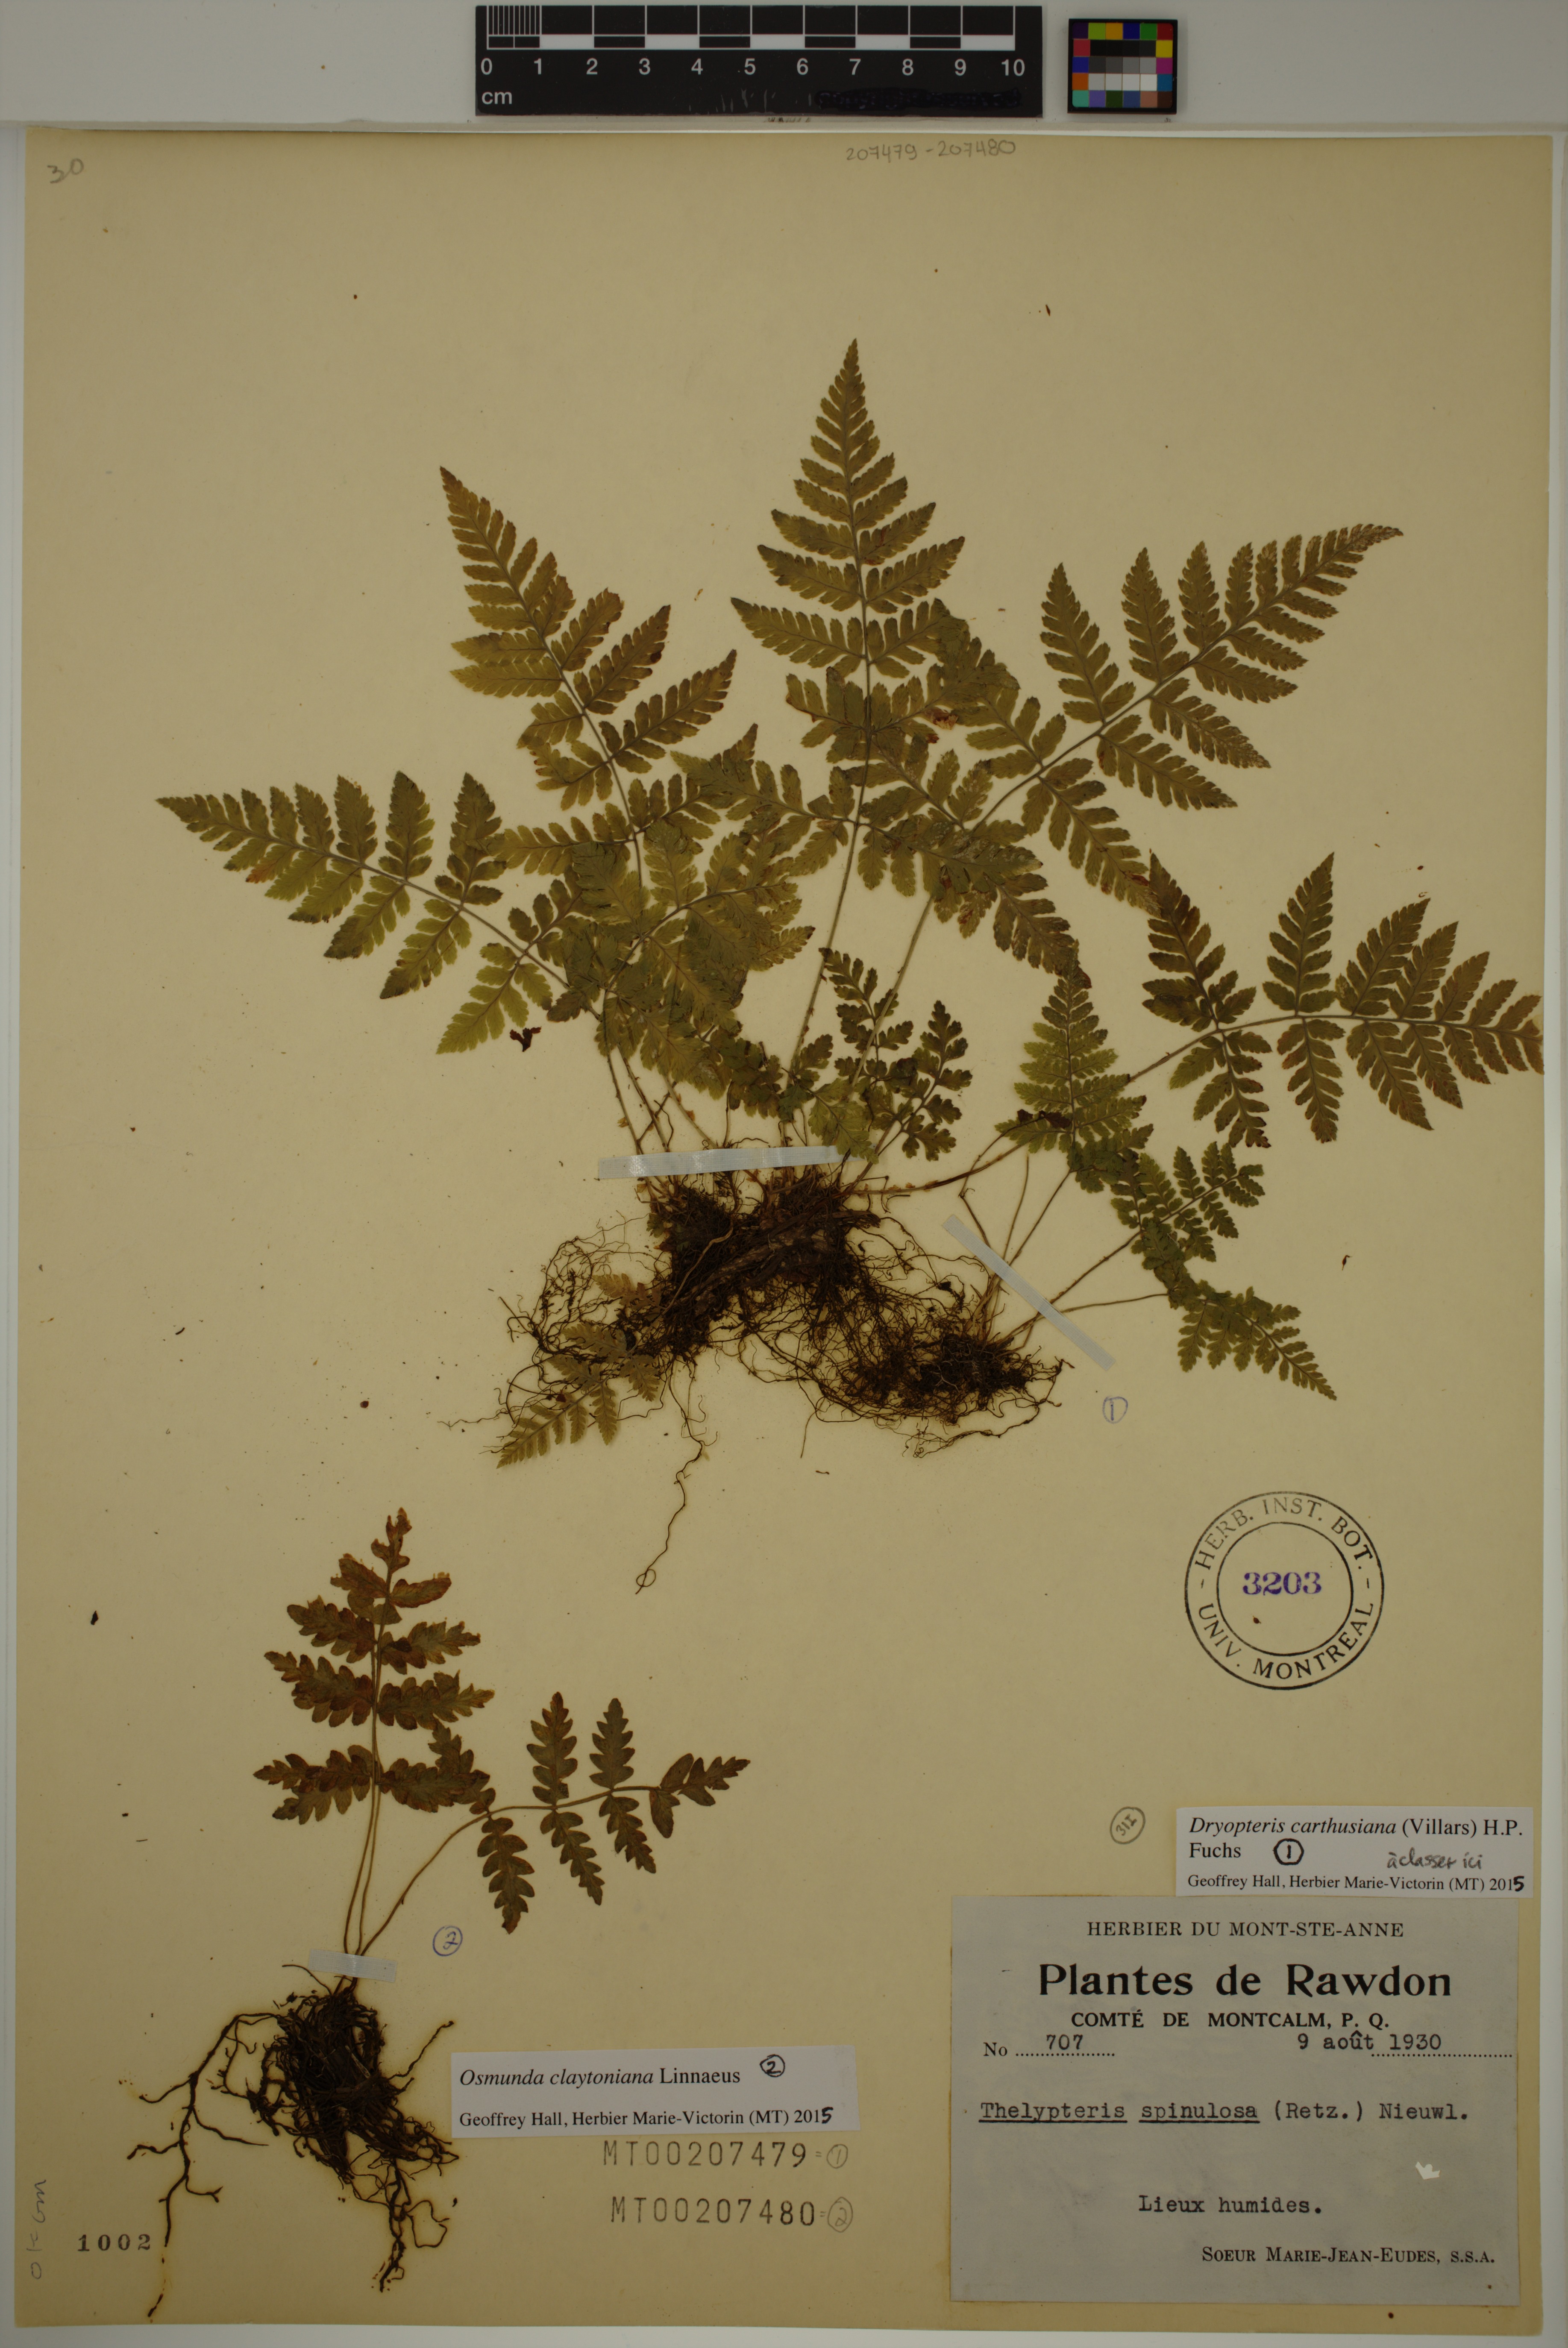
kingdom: Plantae
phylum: Tracheophyta
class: Polypodiopsida
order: Polypodiales
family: Dryopteridaceae
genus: Dryopteris
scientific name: Dryopteris carthusiana
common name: Narrow buckler-fern
